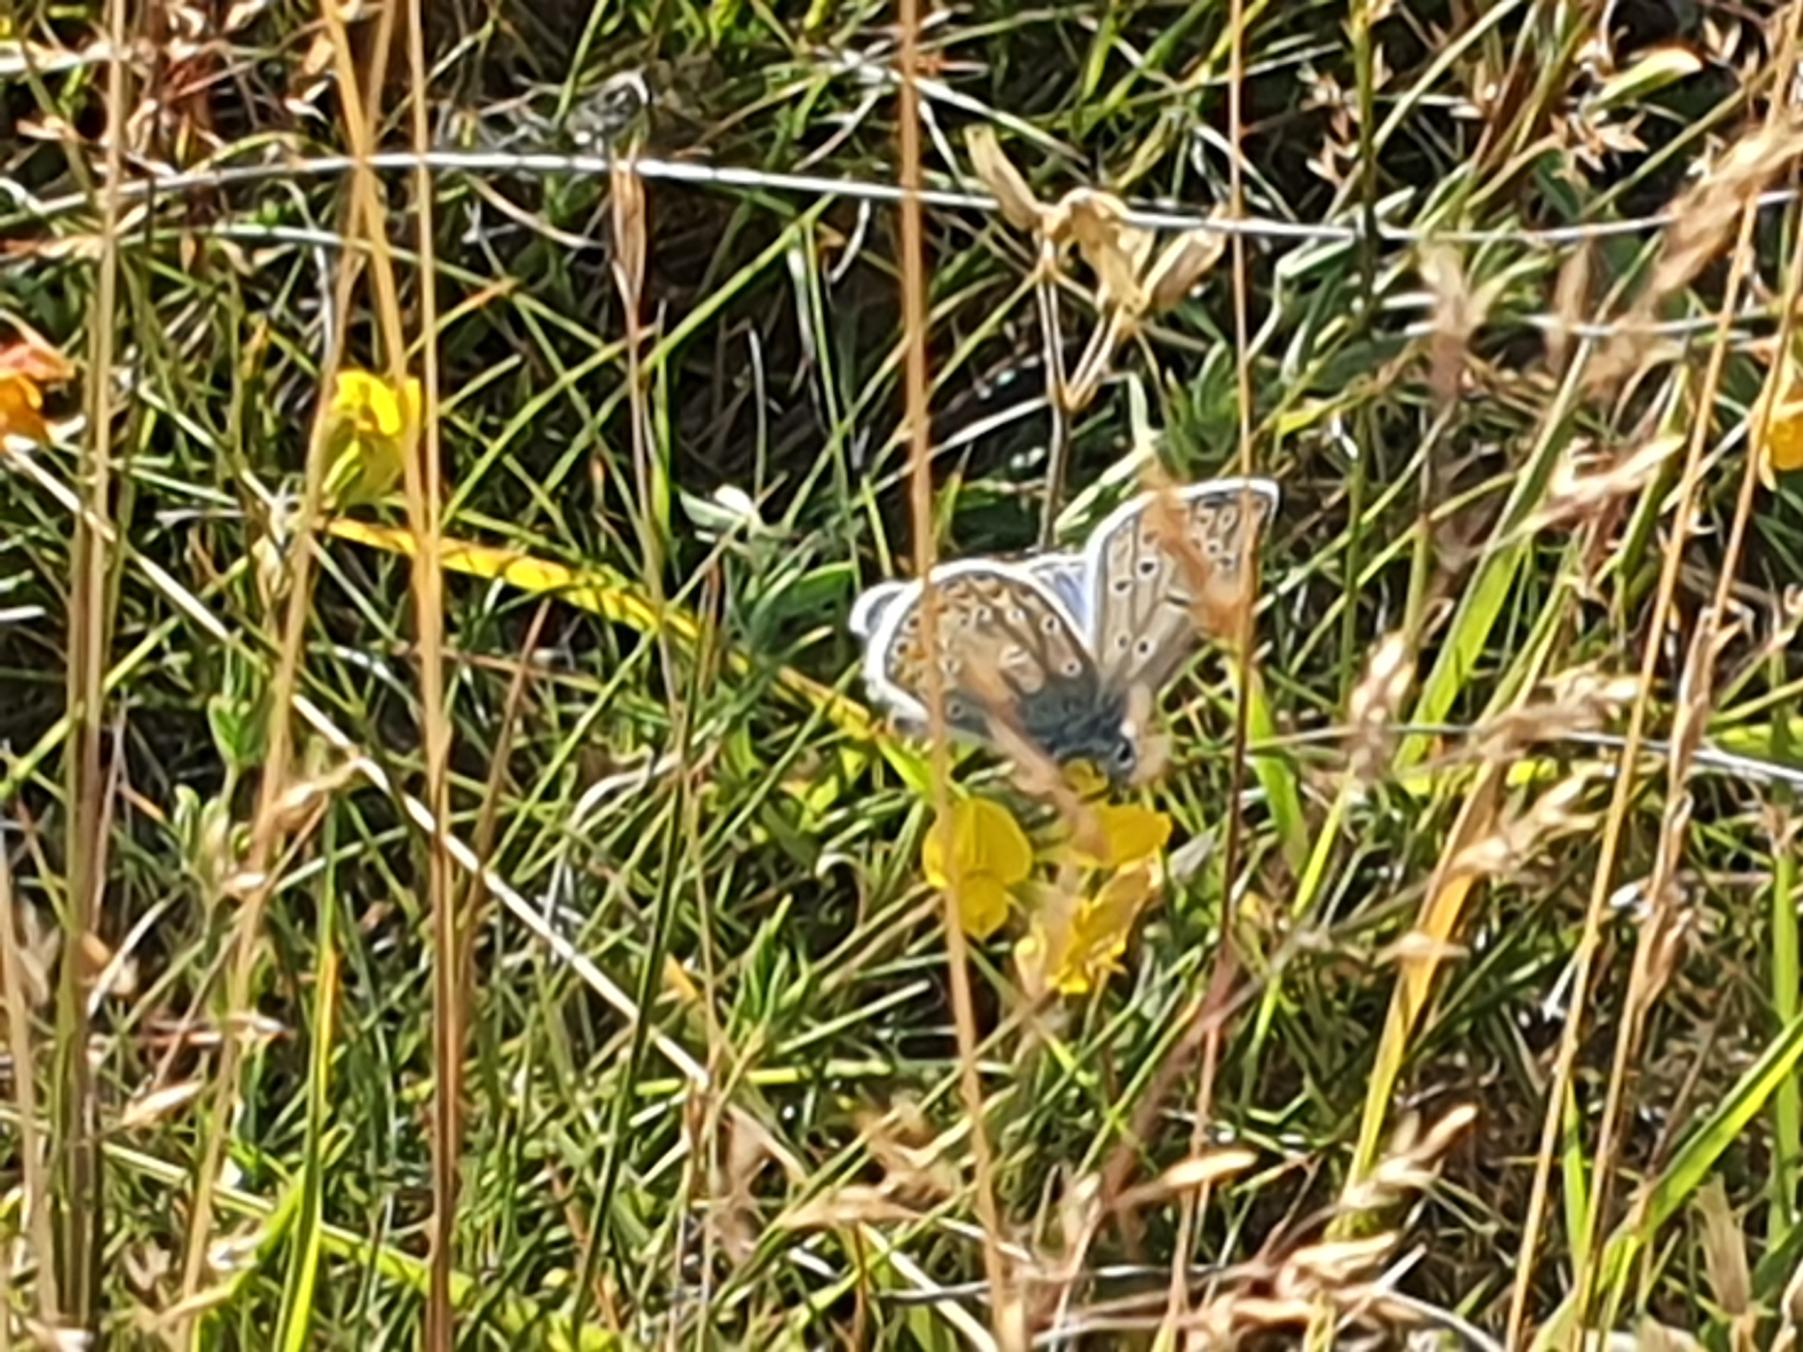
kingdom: Animalia
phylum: Arthropoda
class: Insecta
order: Lepidoptera
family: Lycaenidae
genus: Polyommatus
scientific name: Polyommatus icarus
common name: Almindelig blåfugl
